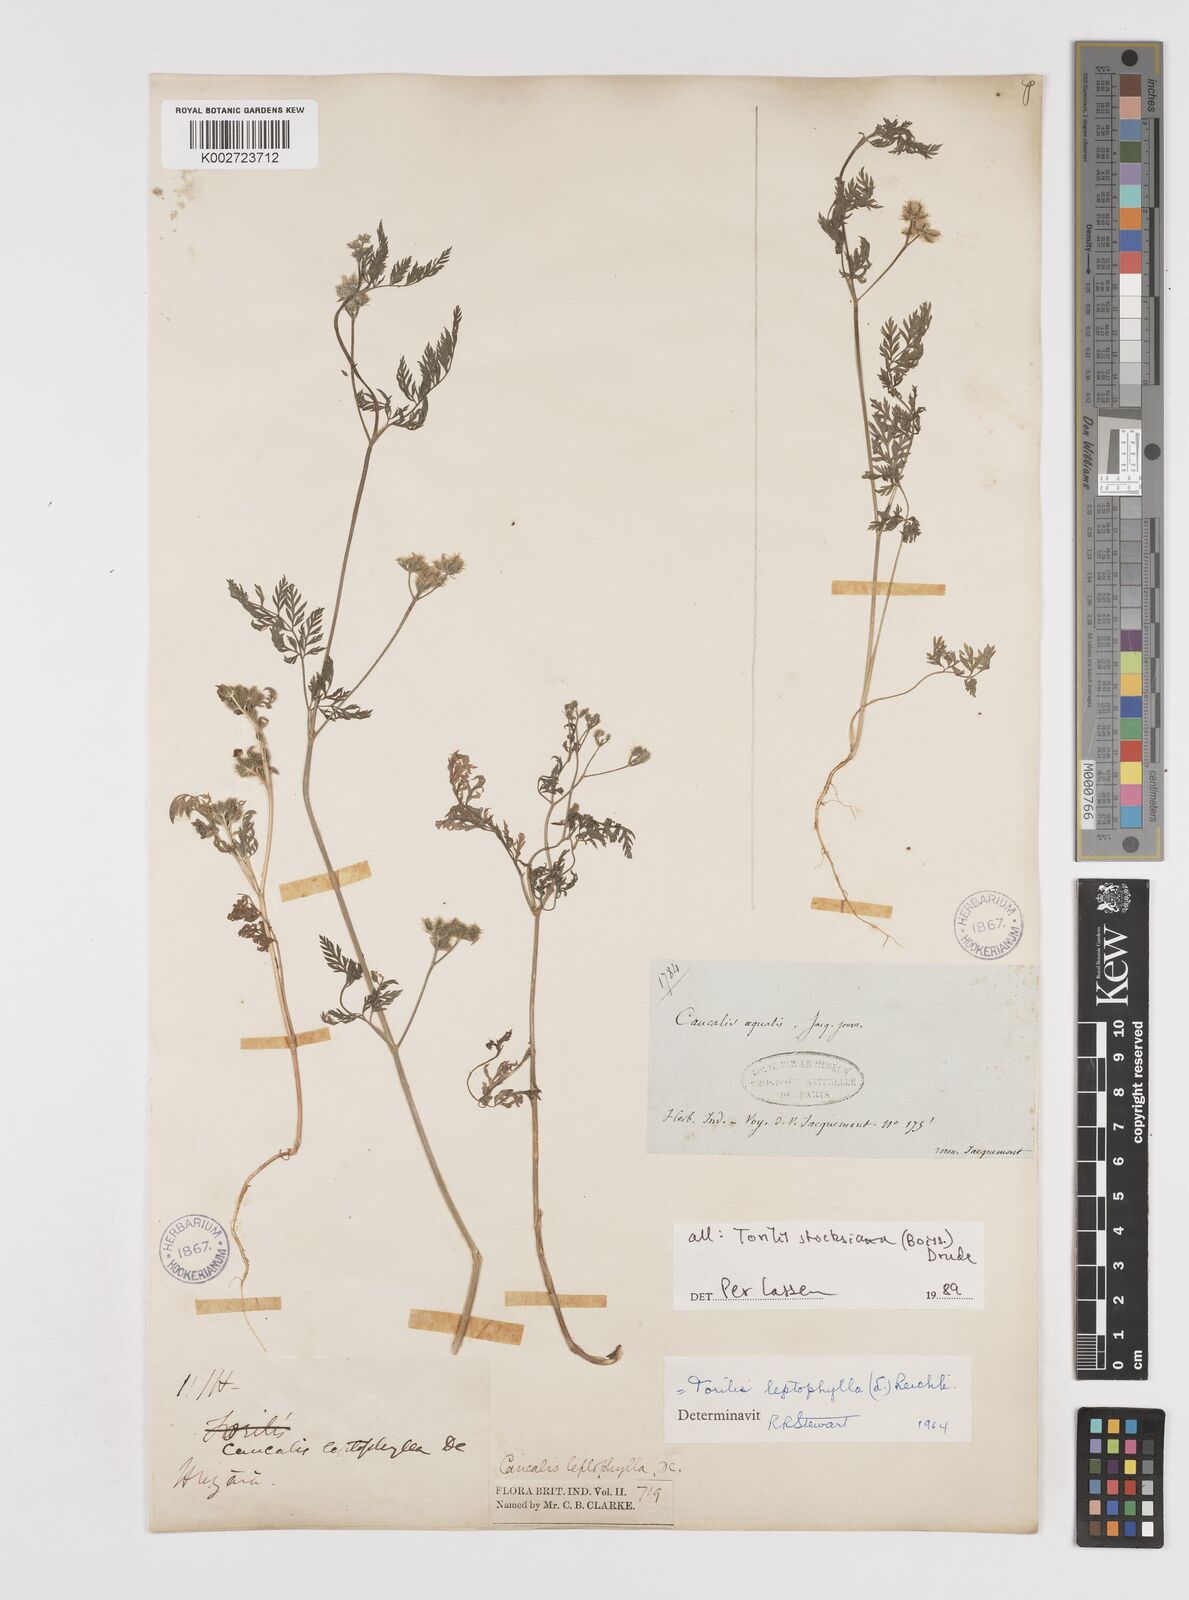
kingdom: Plantae
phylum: Tracheophyta
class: Magnoliopsida
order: Apiales
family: Apiaceae
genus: Torilis
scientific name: Torilis stocksiana
